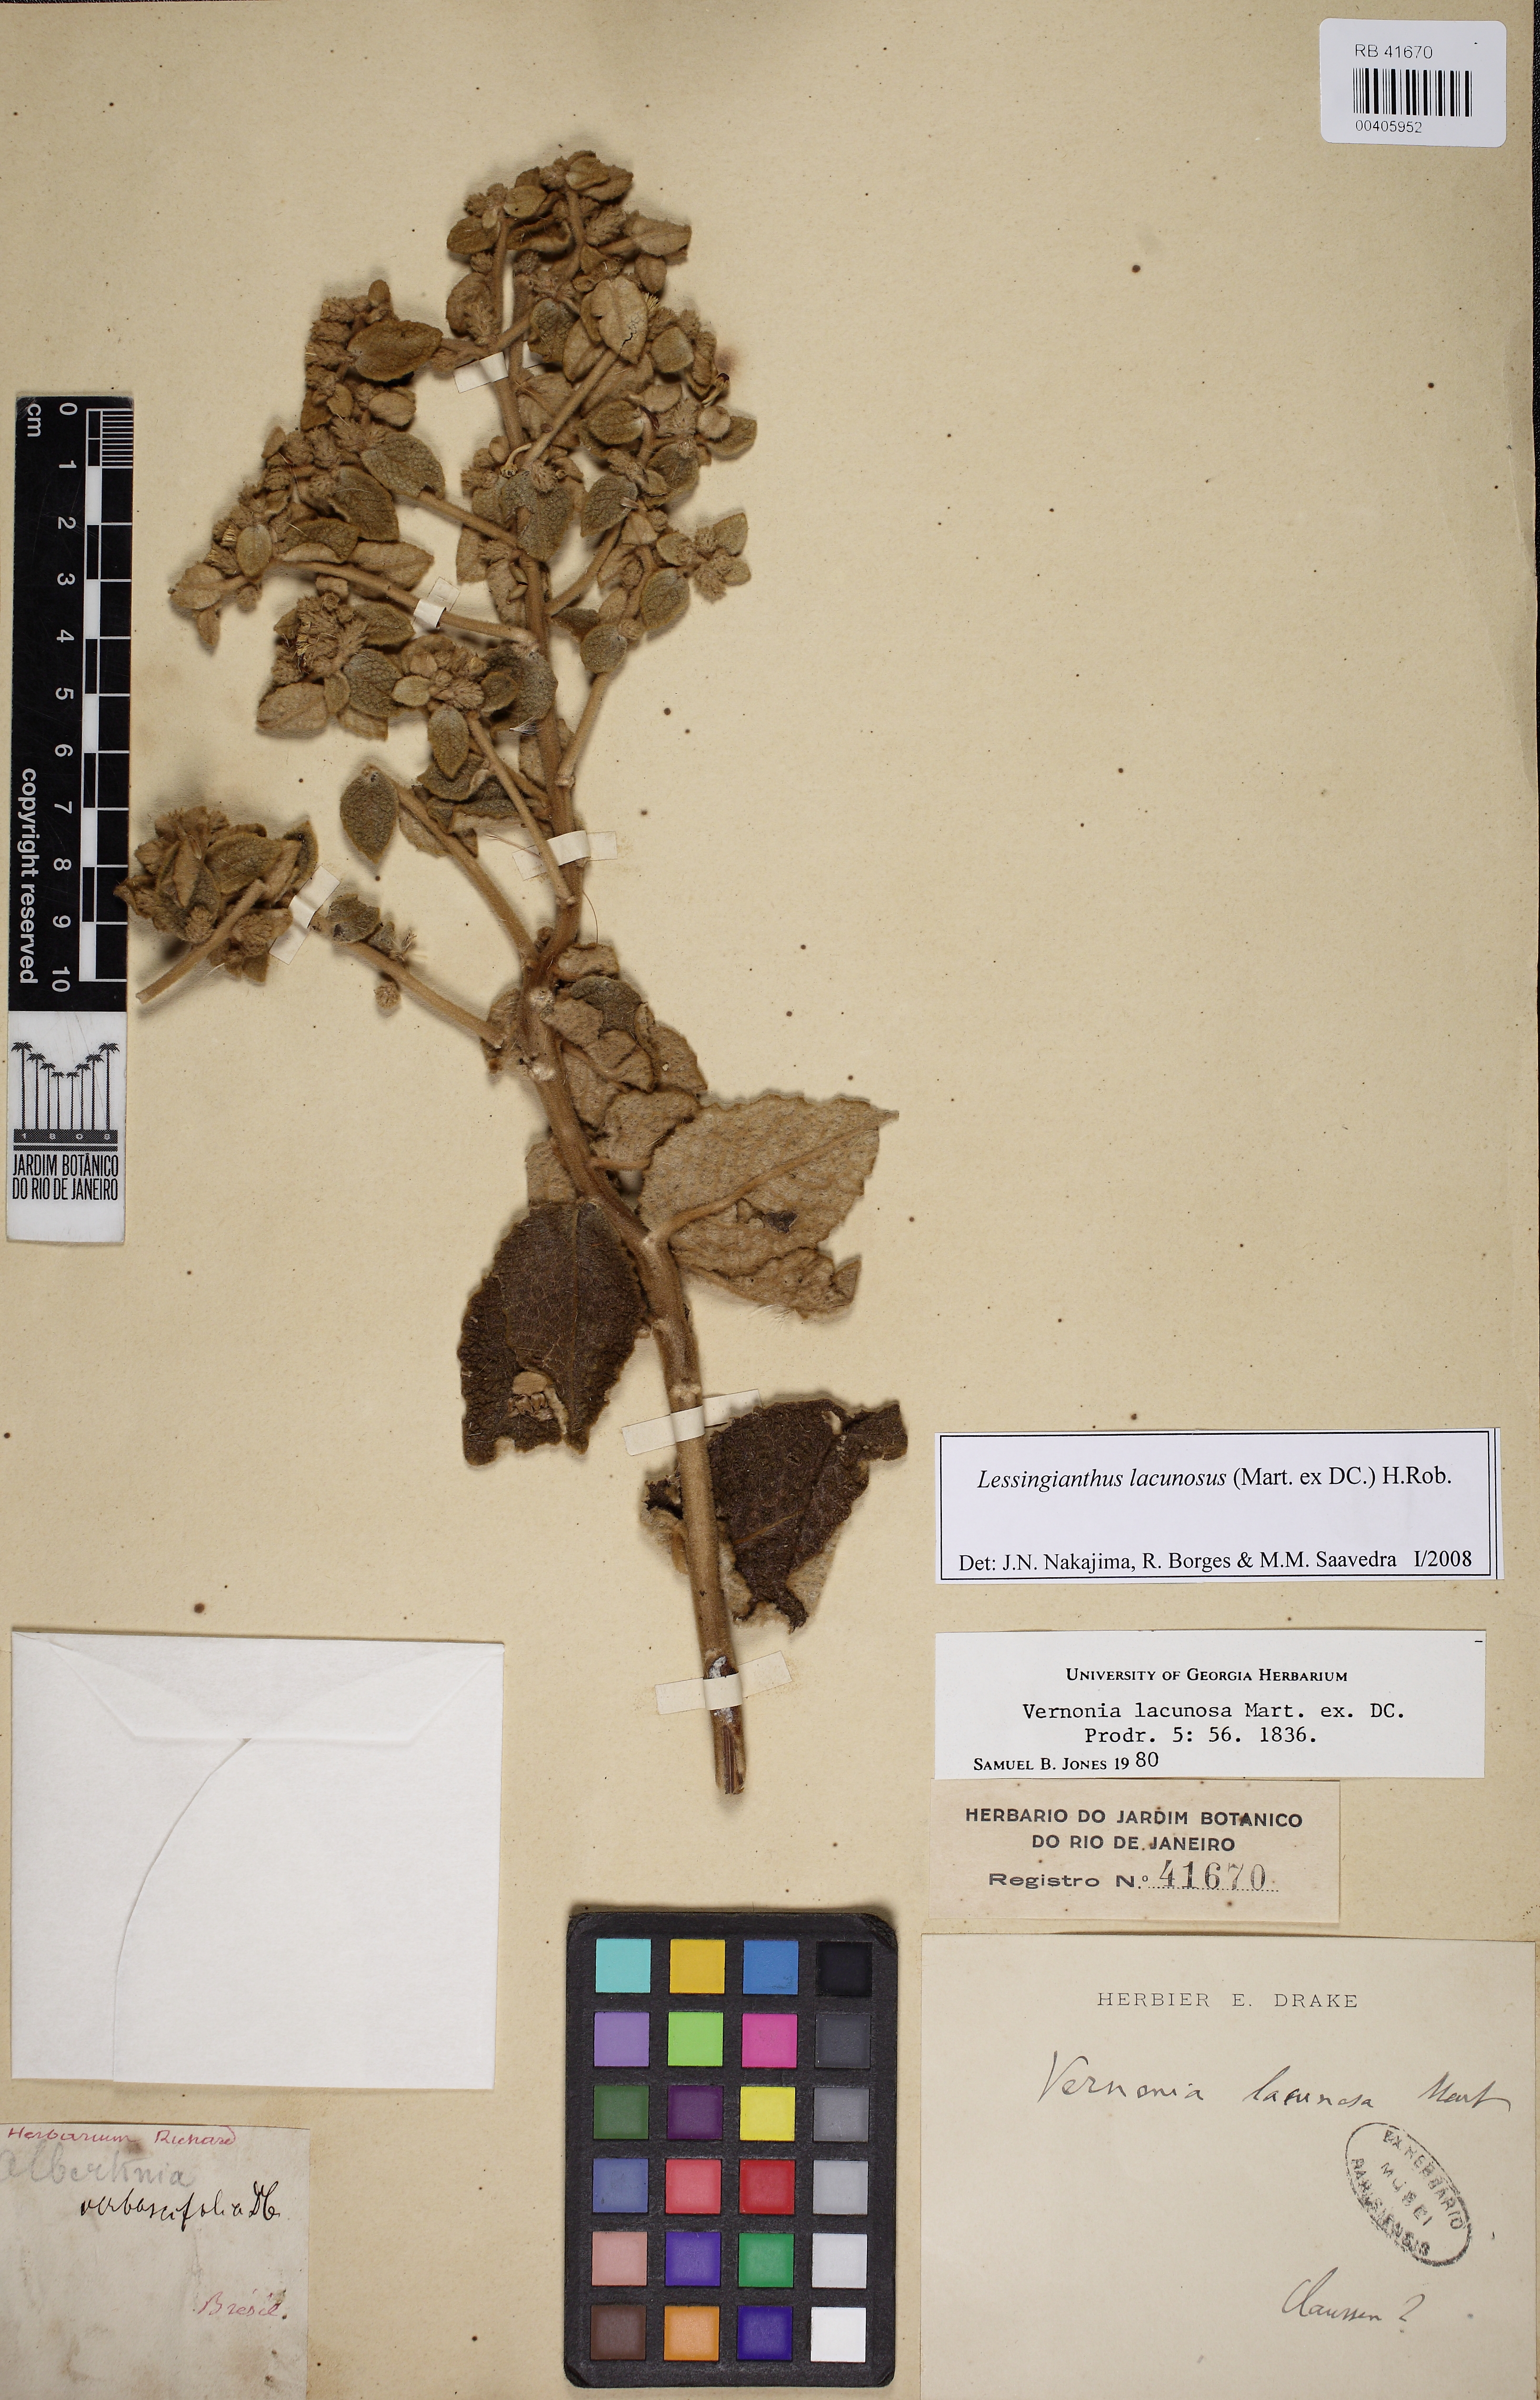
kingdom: Plantae
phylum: Tracheophyta
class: Magnoliopsida
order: Asterales
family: Asteraceae
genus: Lessingianthus
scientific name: Lessingianthus lacunosus
